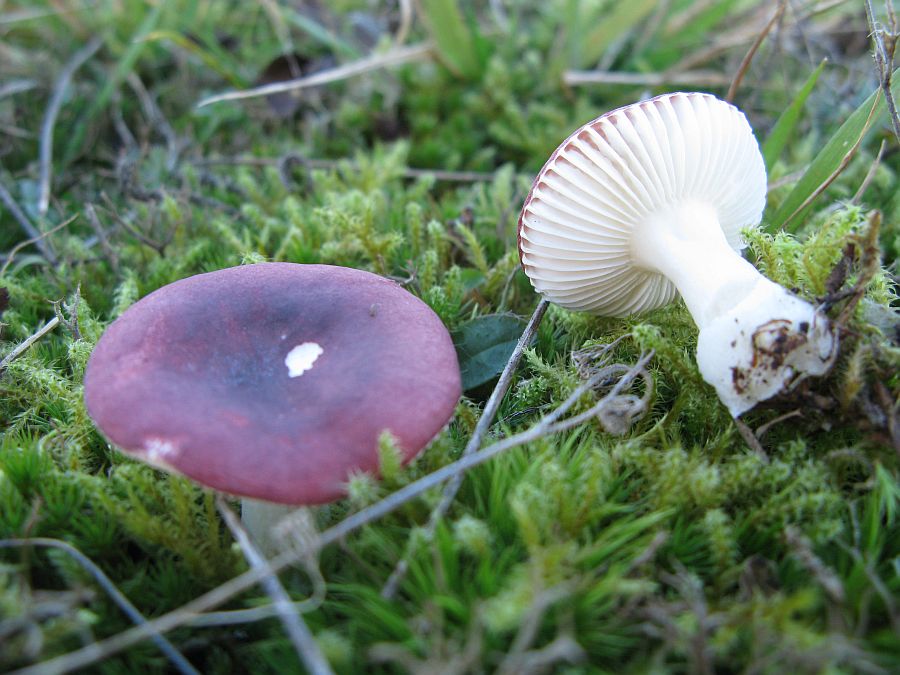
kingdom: Fungi
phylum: Basidiomycota
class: Agaricomycetes
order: Russulales
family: Russulaceae
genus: Russula
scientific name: Russula laccata
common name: klit-skørhat
